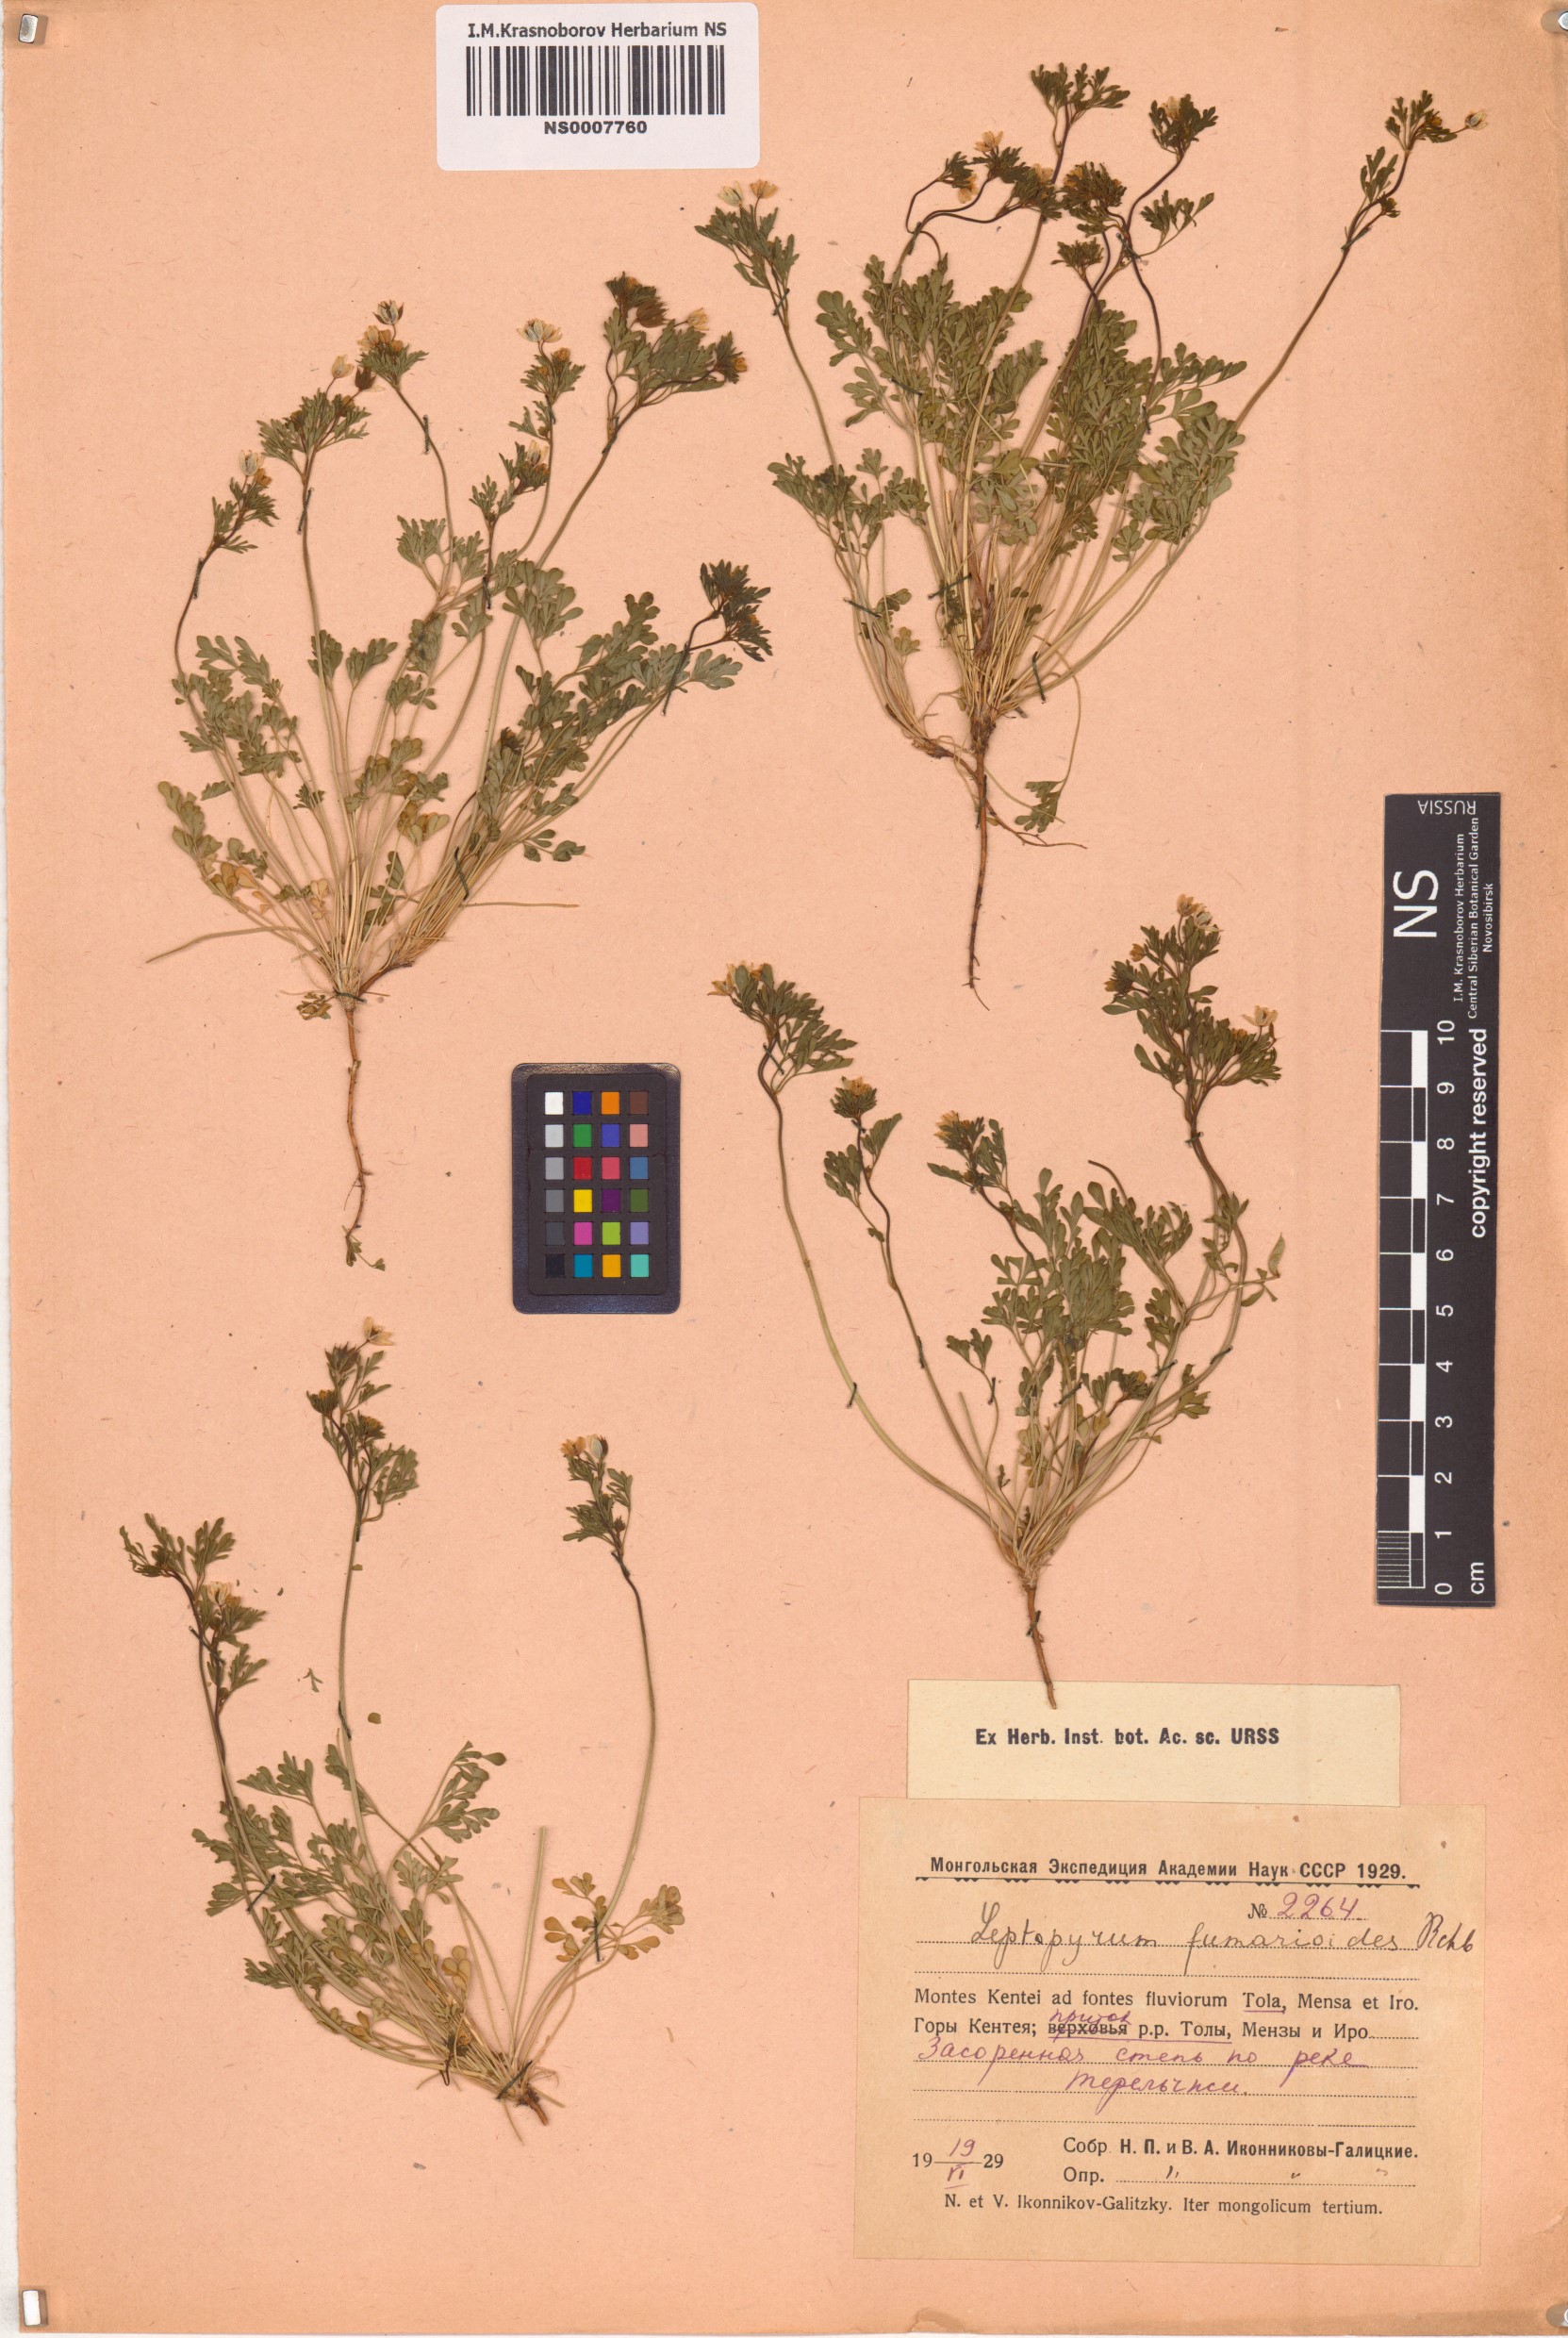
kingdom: Plantae
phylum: Tracheophyta
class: Magnoliopsida
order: Ranunculales
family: Ranunculaceae
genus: Leptopyrum
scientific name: Leptopyrum fumarioides
